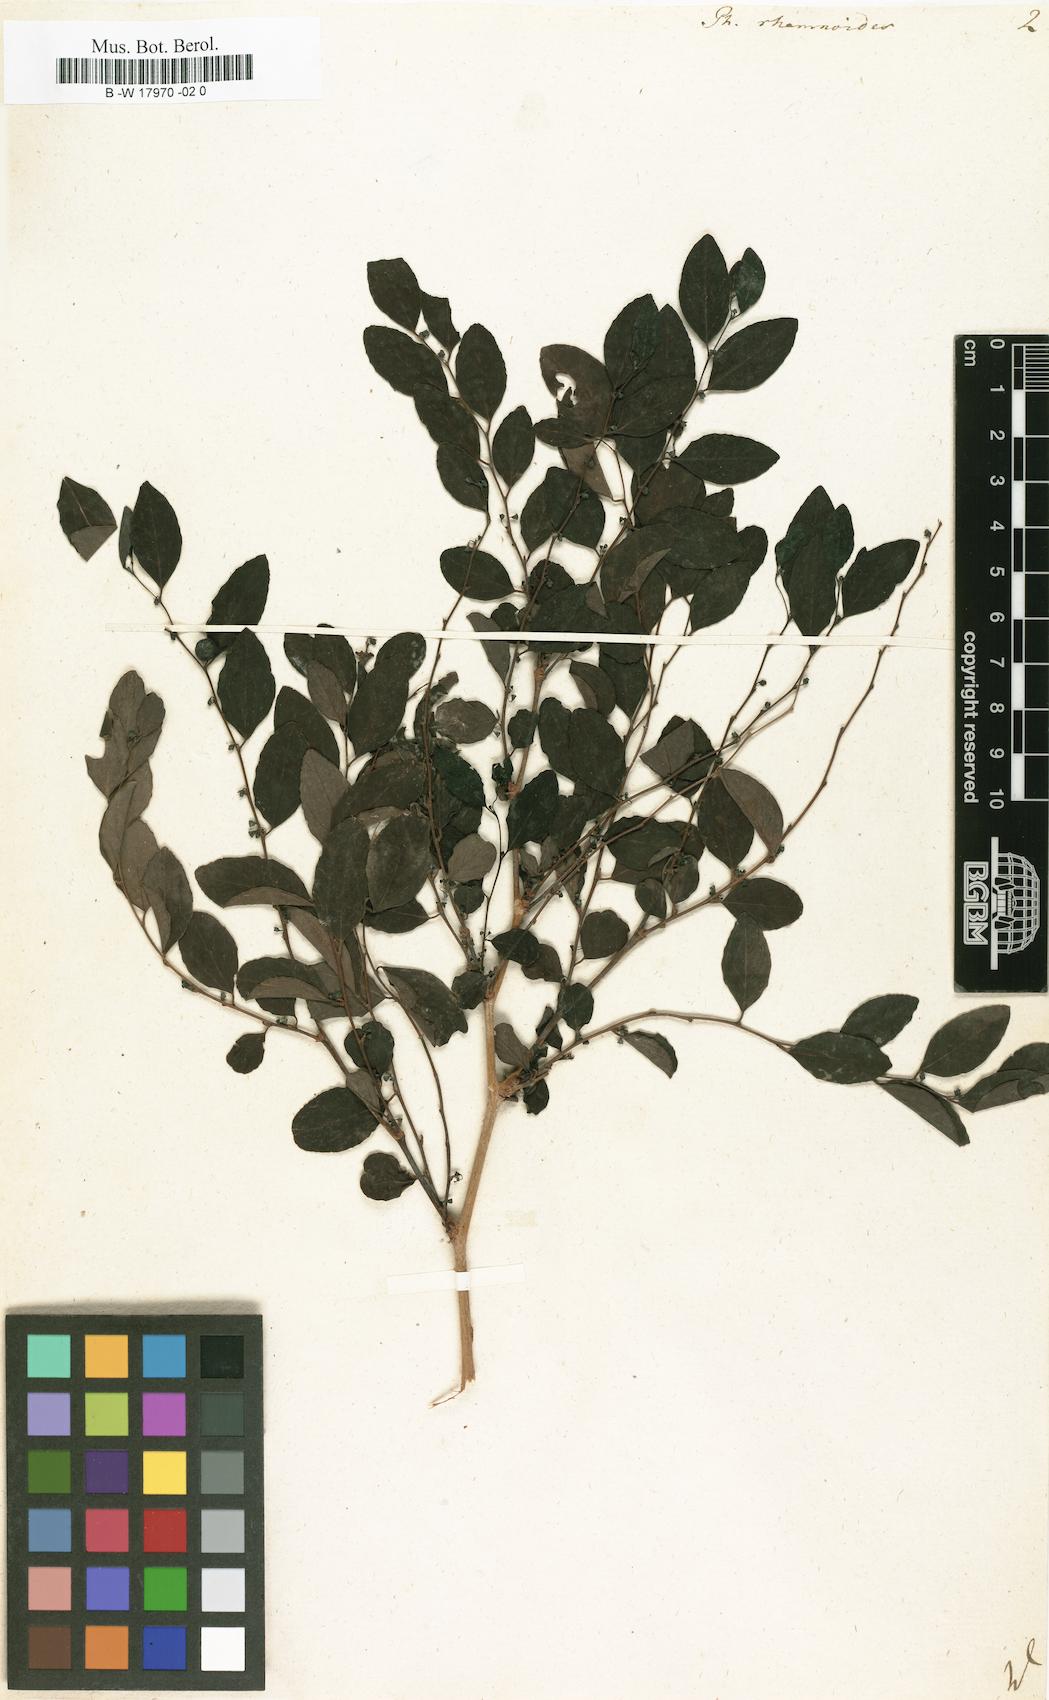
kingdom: Plantae
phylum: Tracheophyta
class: Magnoliopsida
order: Malpighiales
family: Phyllanthaceae
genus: Breynia
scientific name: Breynia vitis-idaea
